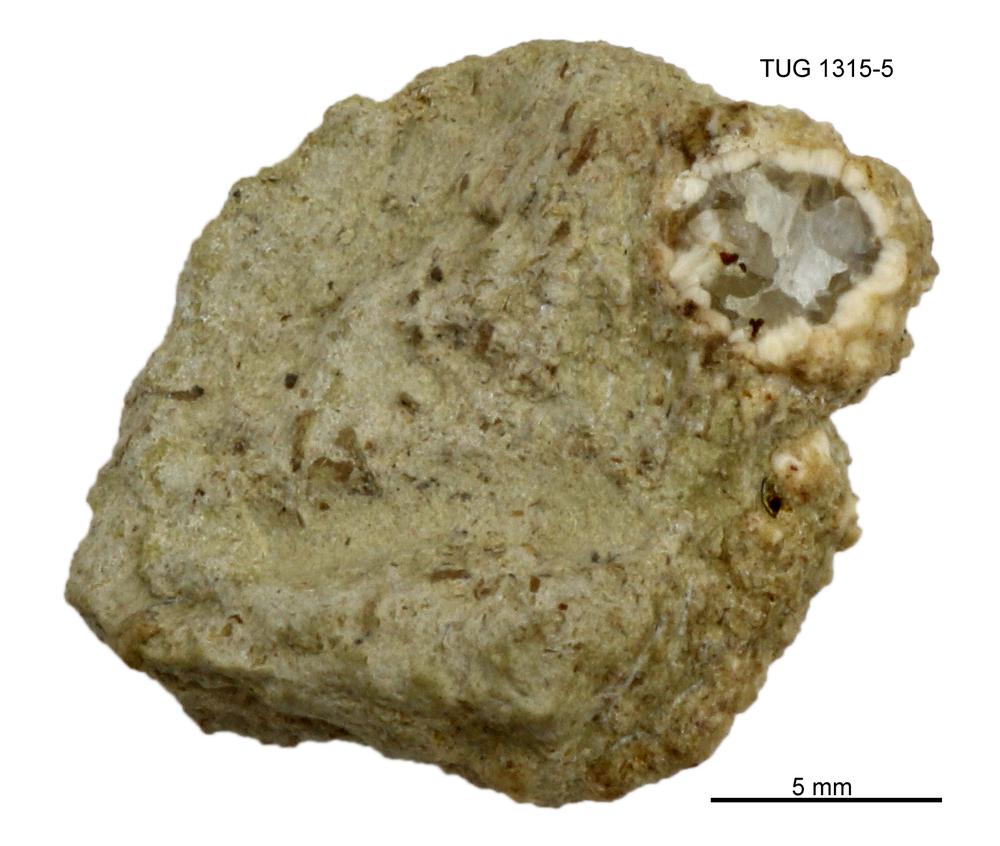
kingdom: Animalia
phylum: Echinodermata
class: Echinoidea
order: Bothriocidaroida
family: Bothriocidaridae
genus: Bothriocidaris
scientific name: Bothriocidaris
